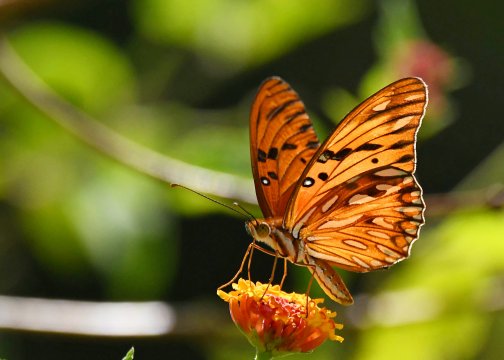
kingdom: Animalia
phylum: Arthropoda
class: Insecta
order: Lepidoptera
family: Nymphalidae
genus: Dione
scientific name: Dione vanillae
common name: Gulf Fritillary
